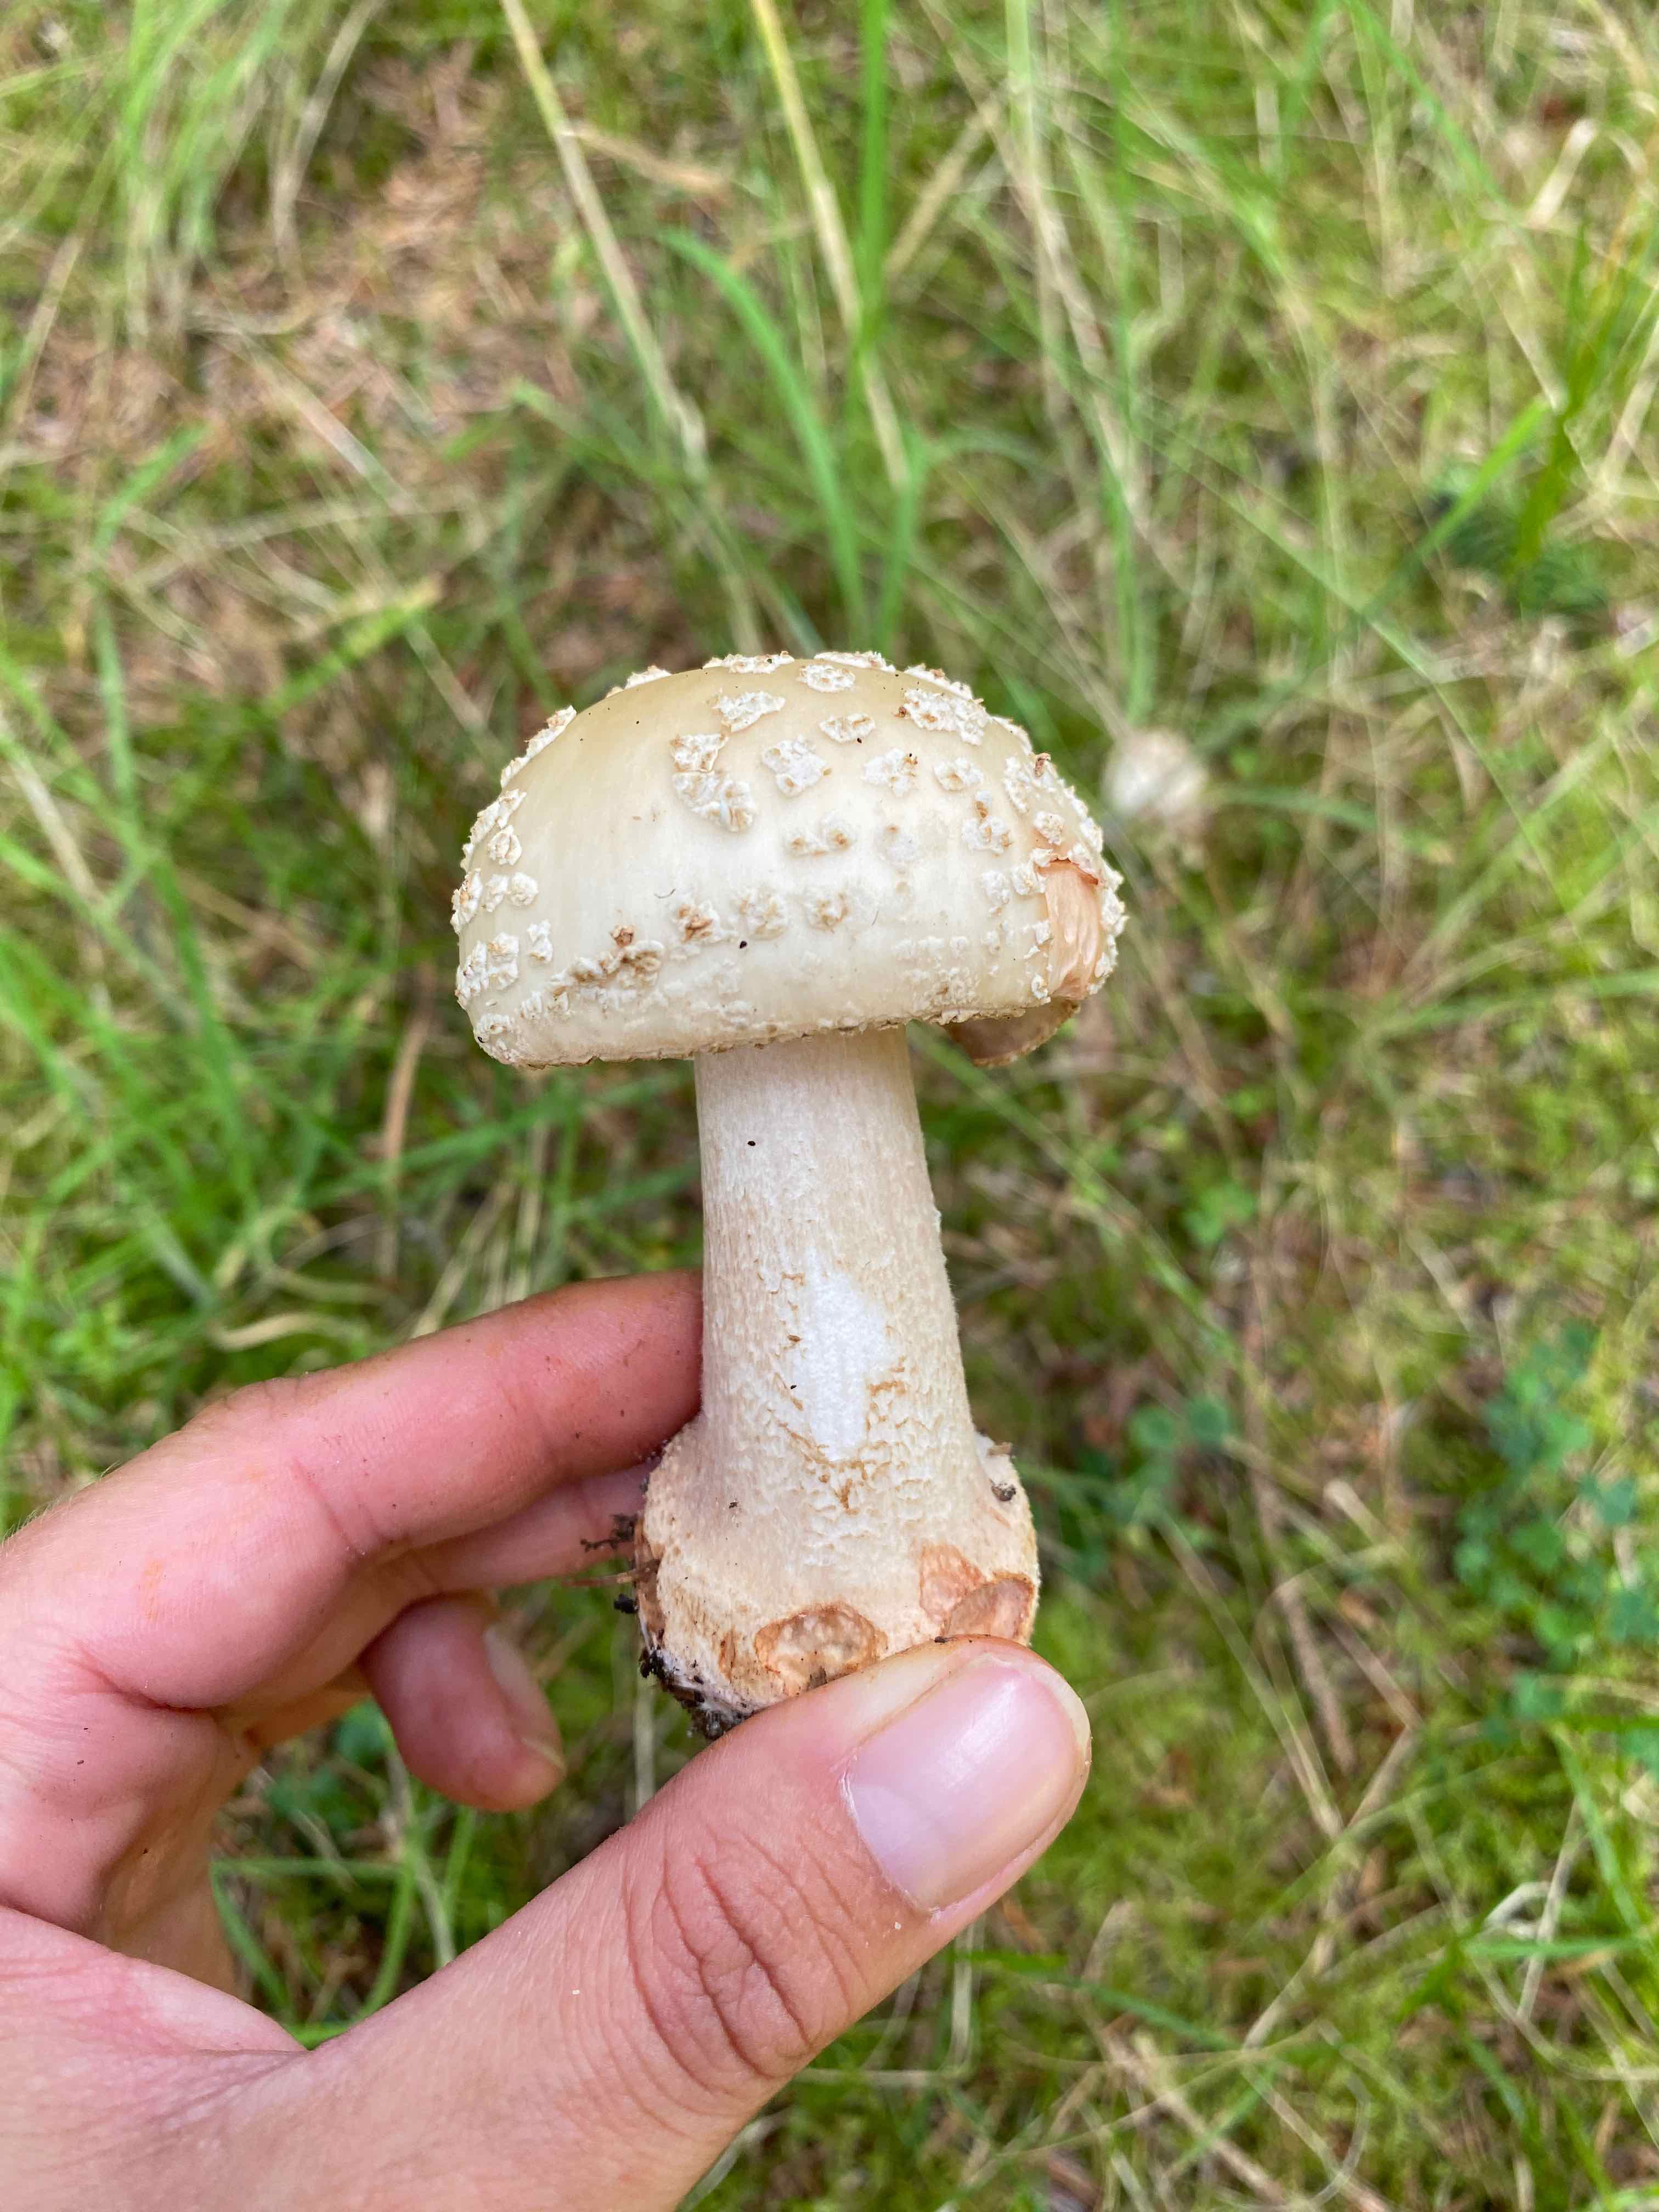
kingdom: Fungi
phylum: Basidiomycota
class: Agaricomycetes
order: Agaricales
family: Amanitaceae
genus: Amanita
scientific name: Amanita rubescens
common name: rødmende fluesvamp
